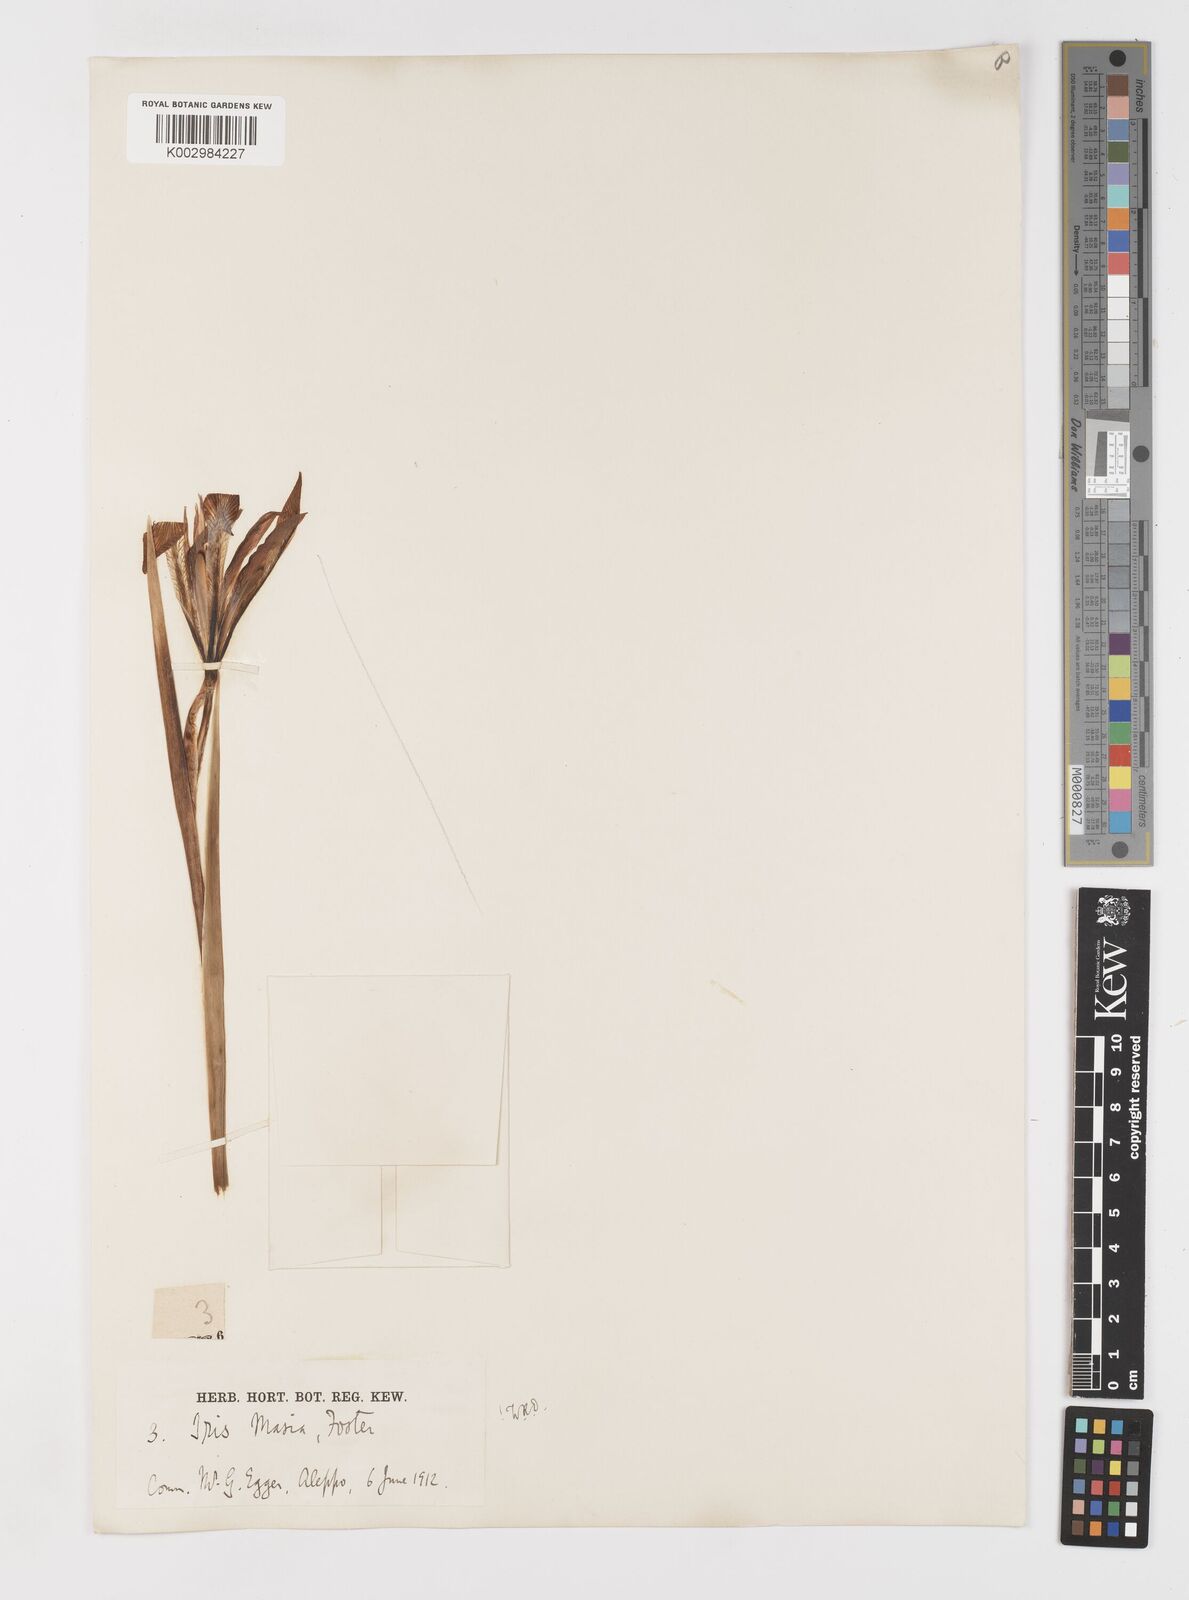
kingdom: Plantae
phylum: Tracheophyta
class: Liliopsida
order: Asparagales
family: Iridaceae
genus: Iris
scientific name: Iris masiae
